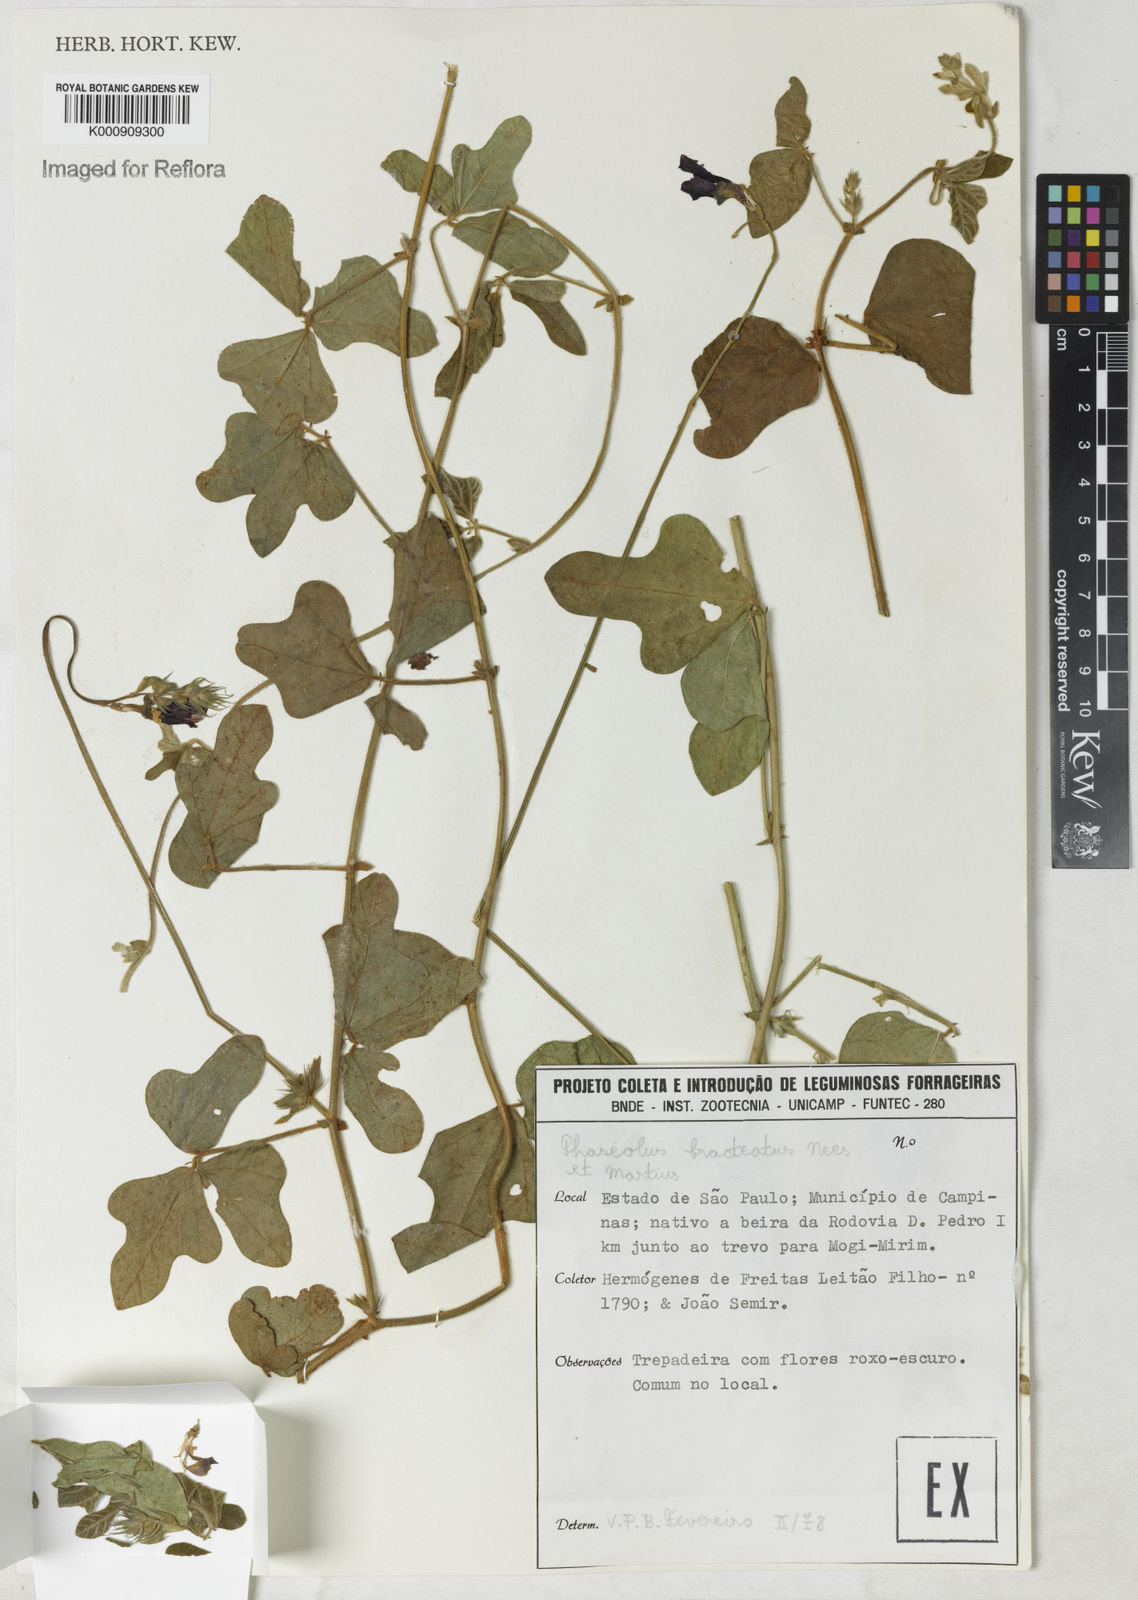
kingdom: Plantae
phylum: Tracheophyta
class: Magnoliopsida
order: Fabales
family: Fabaceae
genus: Macroptilium
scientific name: Macroptilium
